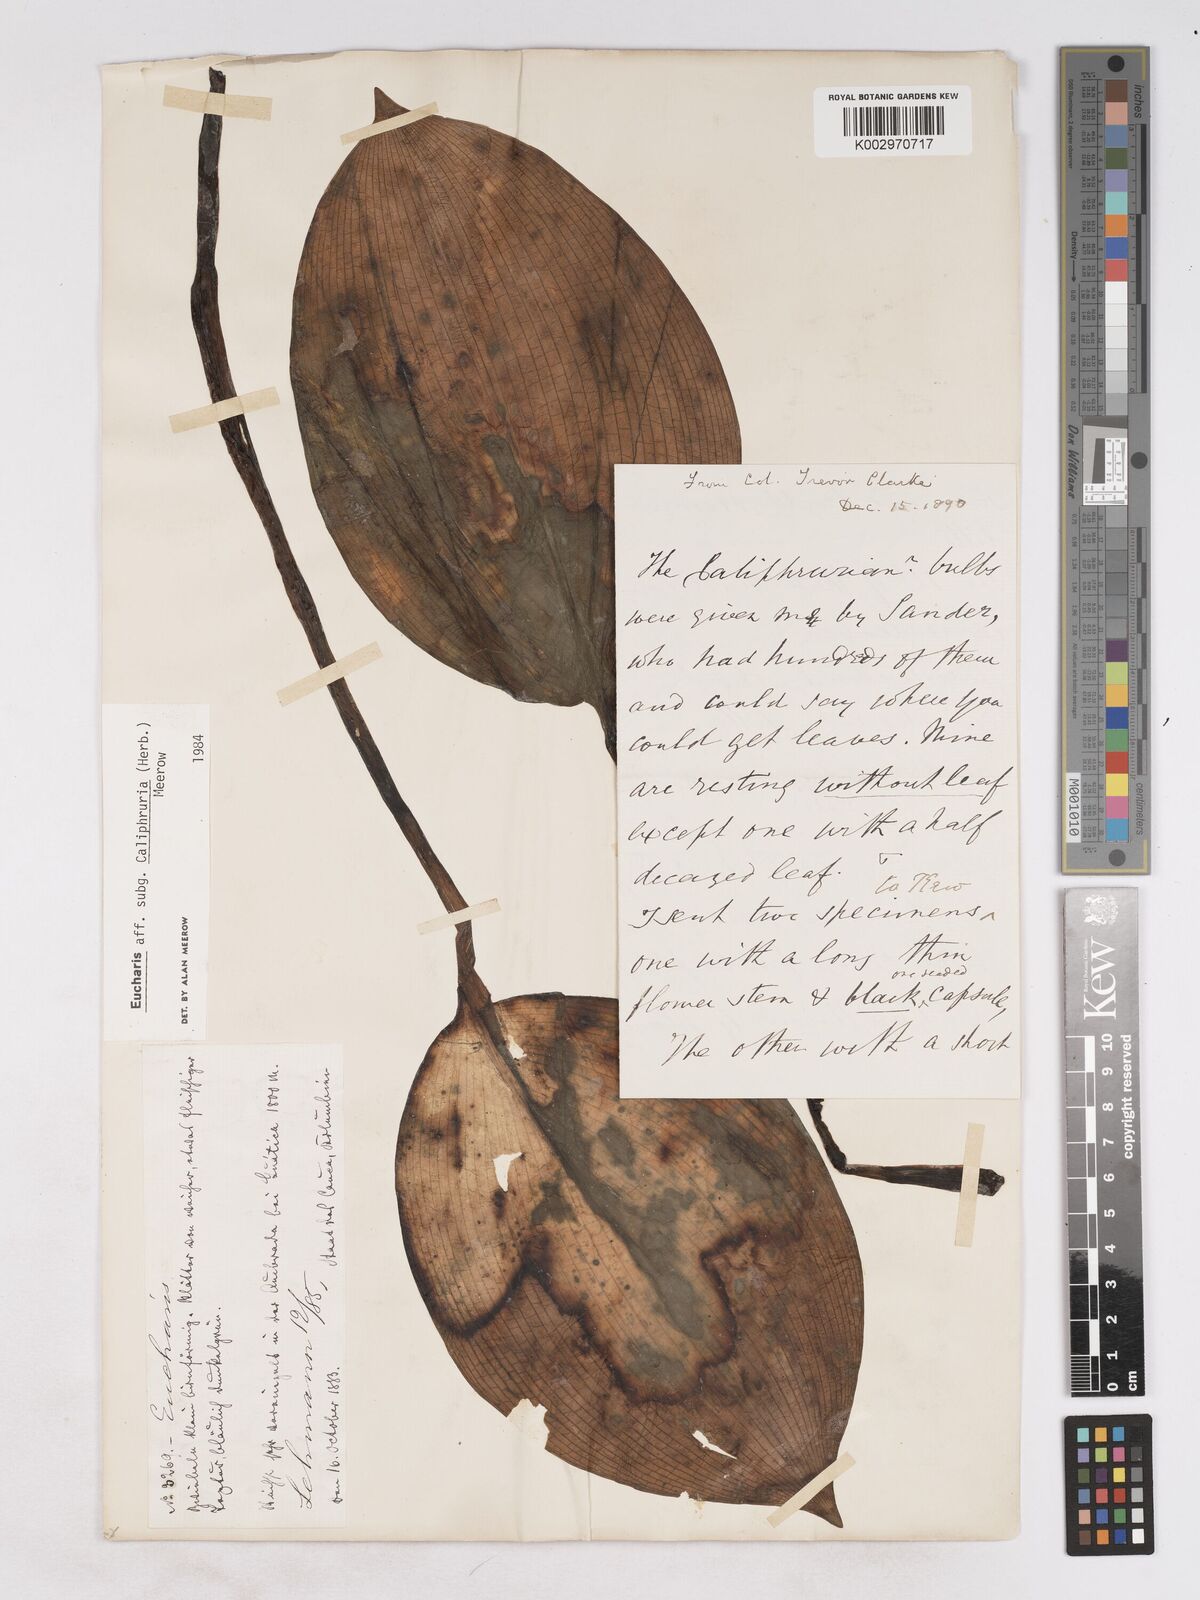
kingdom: Plantae
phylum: Tracheophyta
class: Liliopsida
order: Asparagales
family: Amaryllidaceae
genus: Urceolina
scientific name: Urceolina
